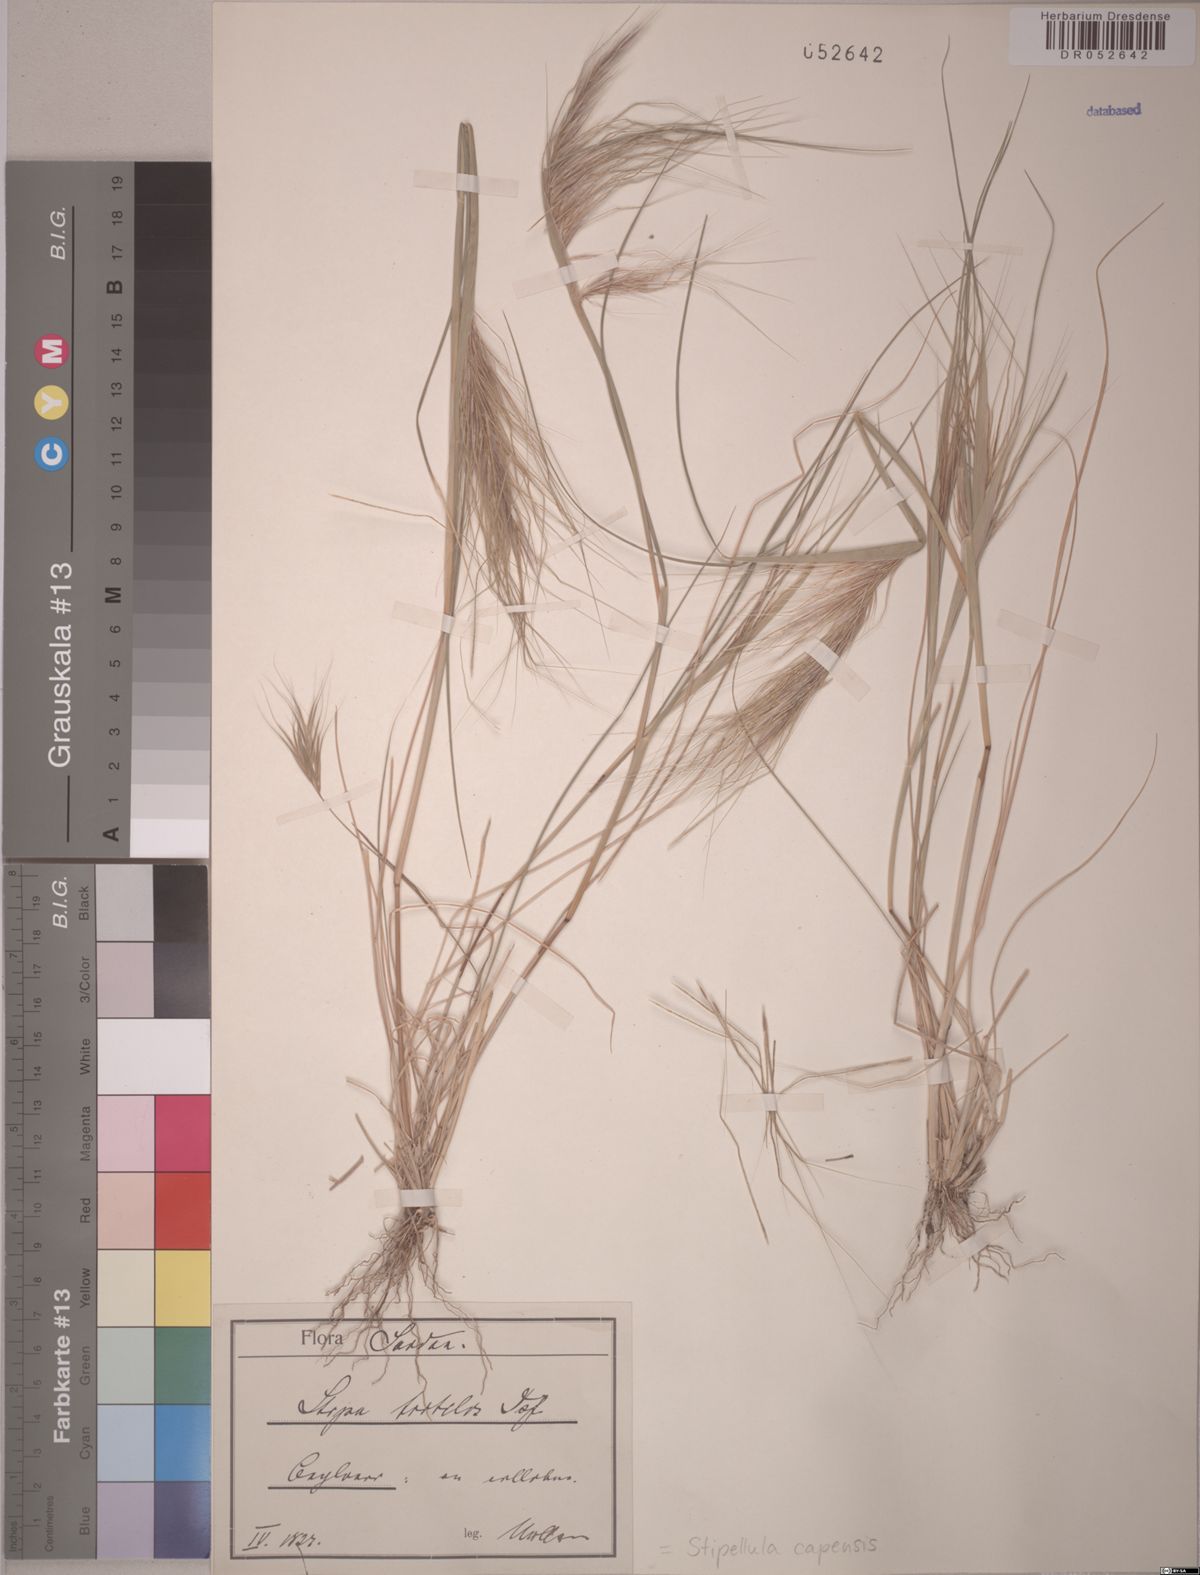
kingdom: Plantae
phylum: Tracheophyta
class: Liliopsida
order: Poales
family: Poaceae
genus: Stipellula
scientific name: Stipellula capensis
